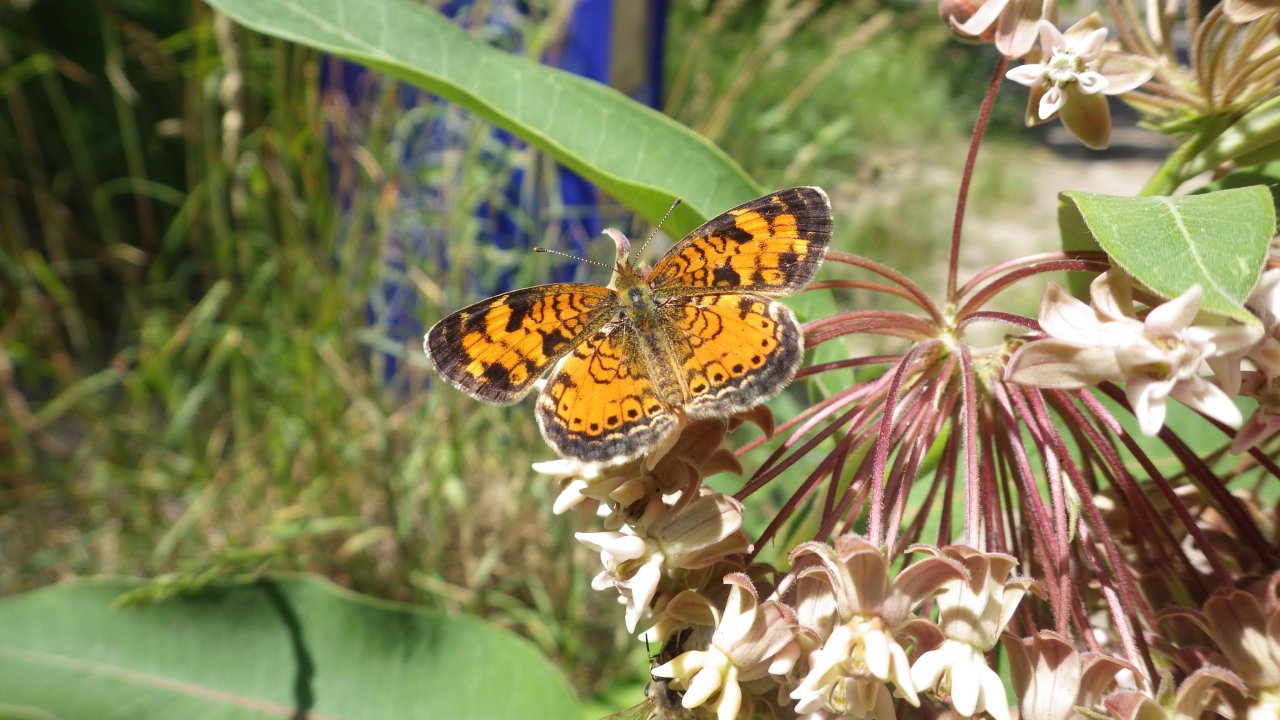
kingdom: Animalia
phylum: Arthropoda
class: Insecta
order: Lepidoptera
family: Nymphalidae
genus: Phyciodes
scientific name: Phyciodes tharos
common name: Northern Crescent
